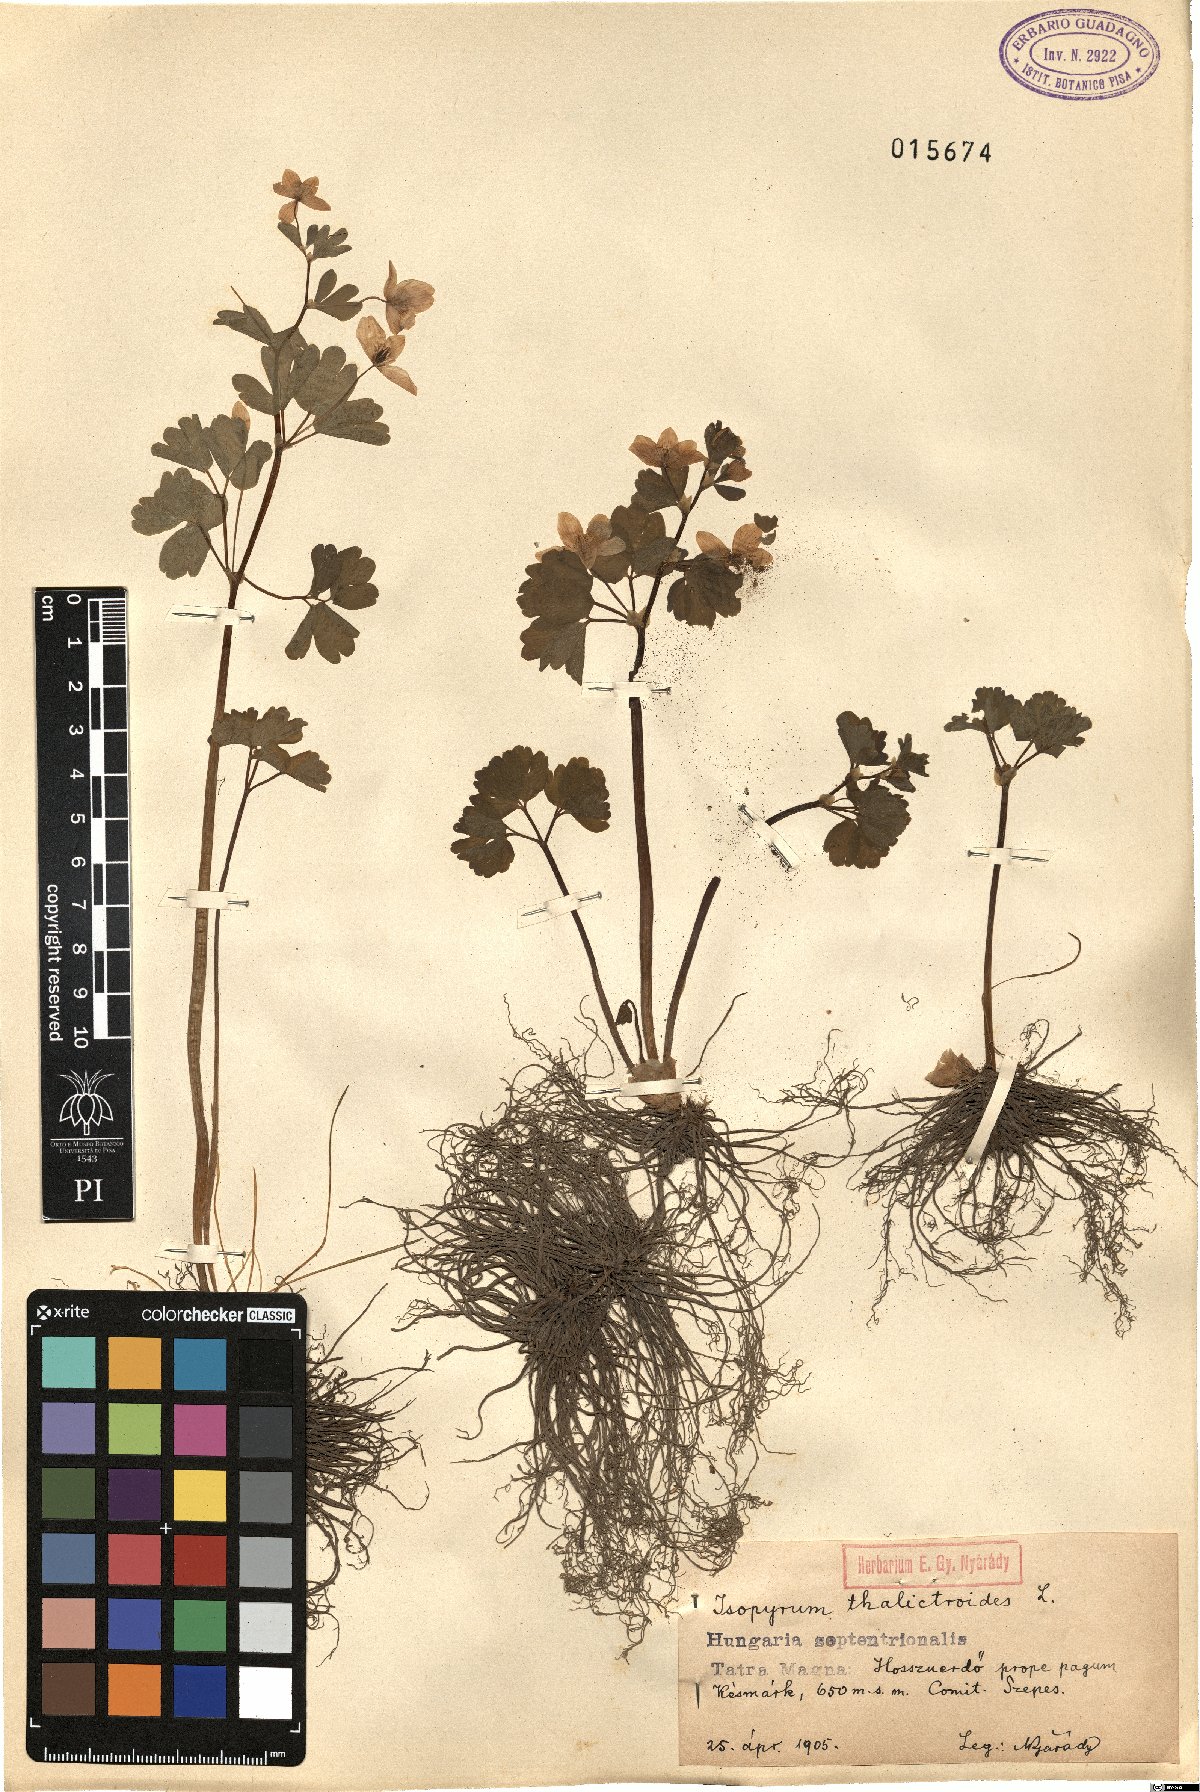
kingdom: Plantae
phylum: Tracheophyta
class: Magnoliopsida
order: Ranunculales
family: Ranunculaceae
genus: Isopyrum
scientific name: Isopyrum thalictroides
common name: Isopyrum
